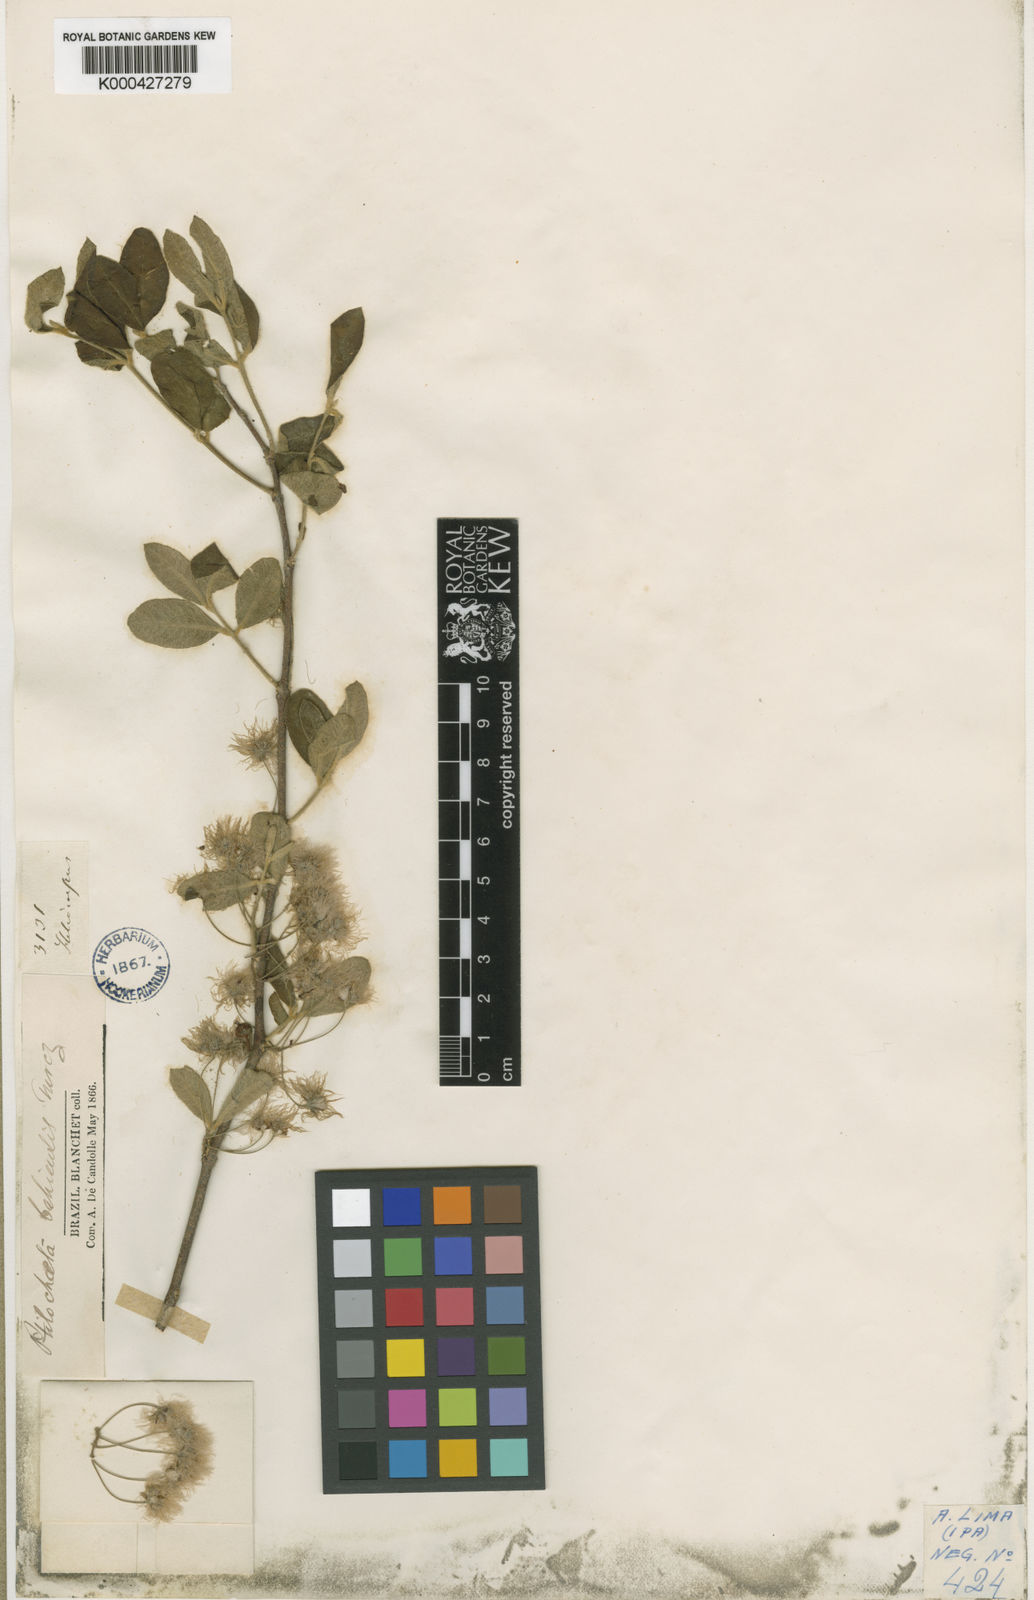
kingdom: Plantae
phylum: Tracheophyta
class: Magnoliopsida
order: Malpighiales
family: Malpighiaceae
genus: Ptilochaeta
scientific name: Ptilochaeta bahiensis
